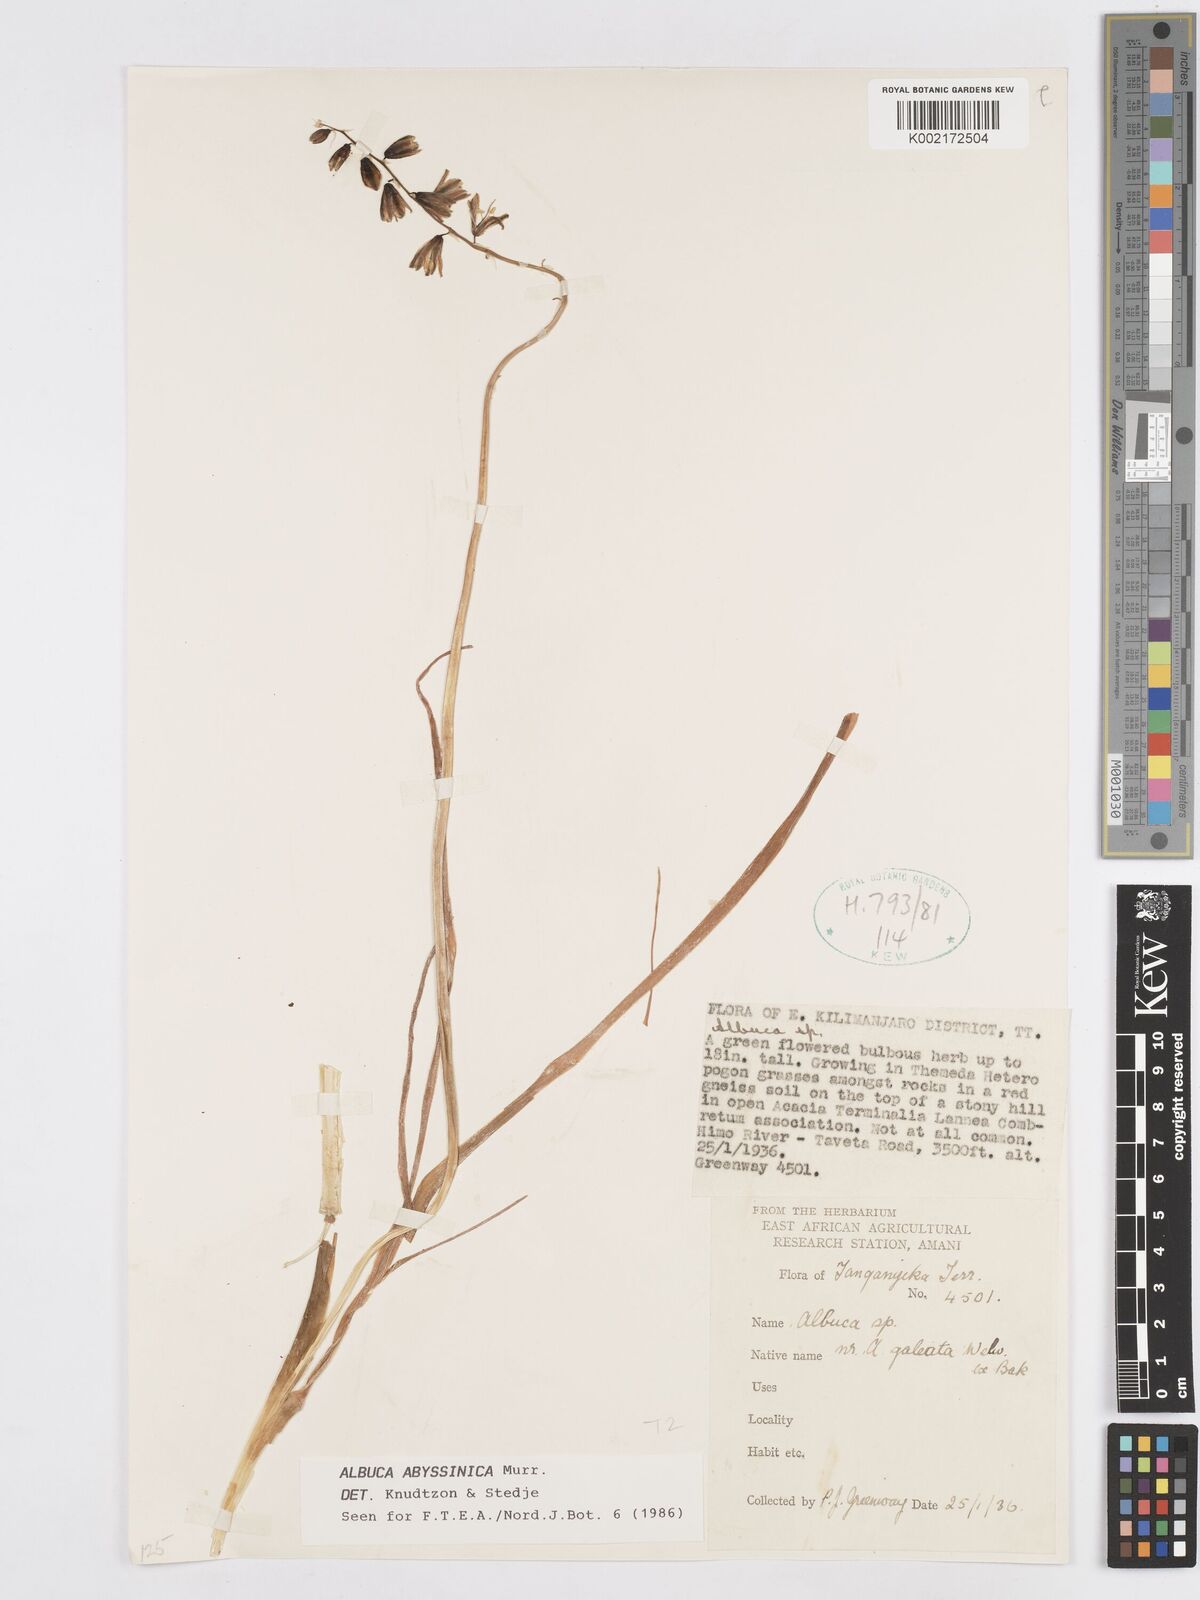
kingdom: Plantae
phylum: Tracheophyta
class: Liliopsida
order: Asparagales
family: Asparagaceae
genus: Albuca
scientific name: Albuca abyssinica
